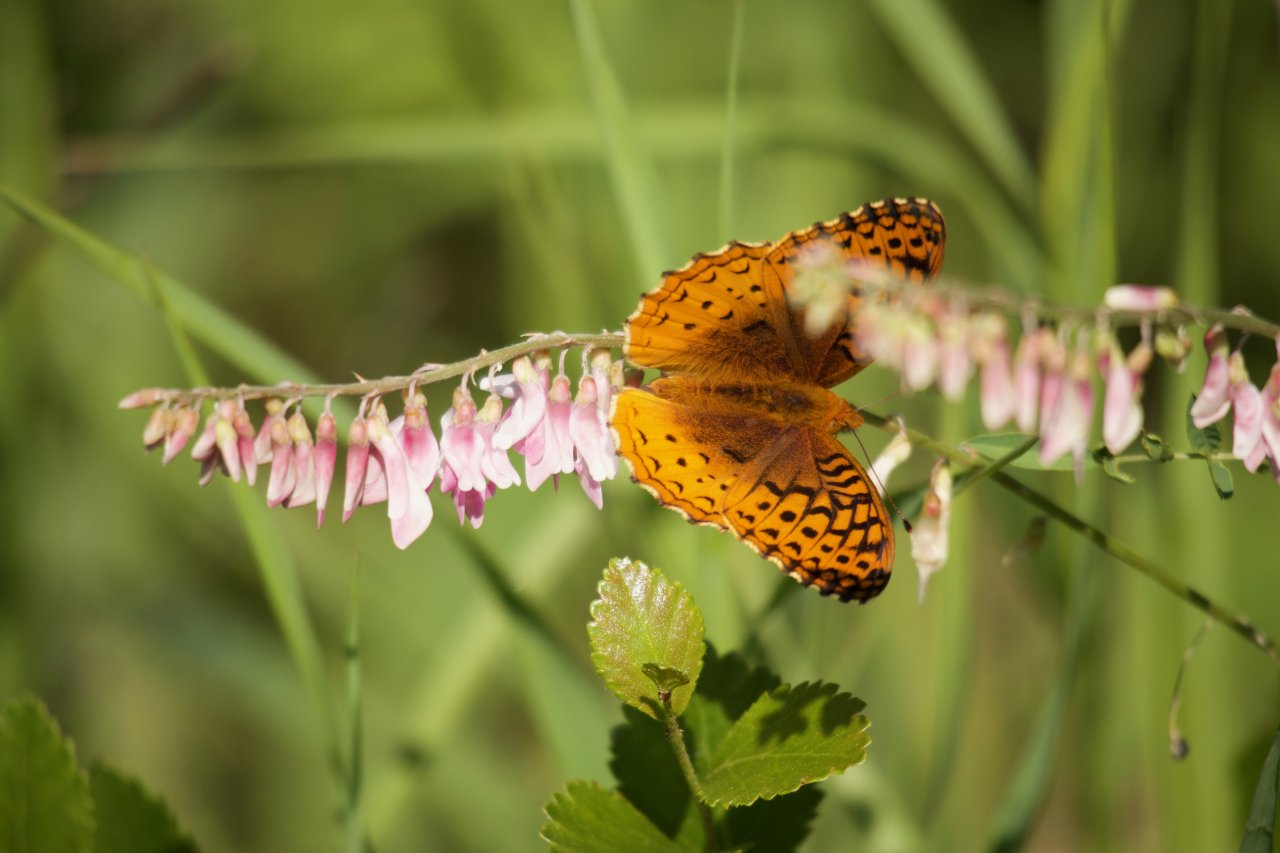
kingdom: Animalia
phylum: Arthropoda
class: Insecta
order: Lepidoptera
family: Nymphalidae
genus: Speyeria
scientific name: Speyeria cybele
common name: Great Spangled Fritillary
